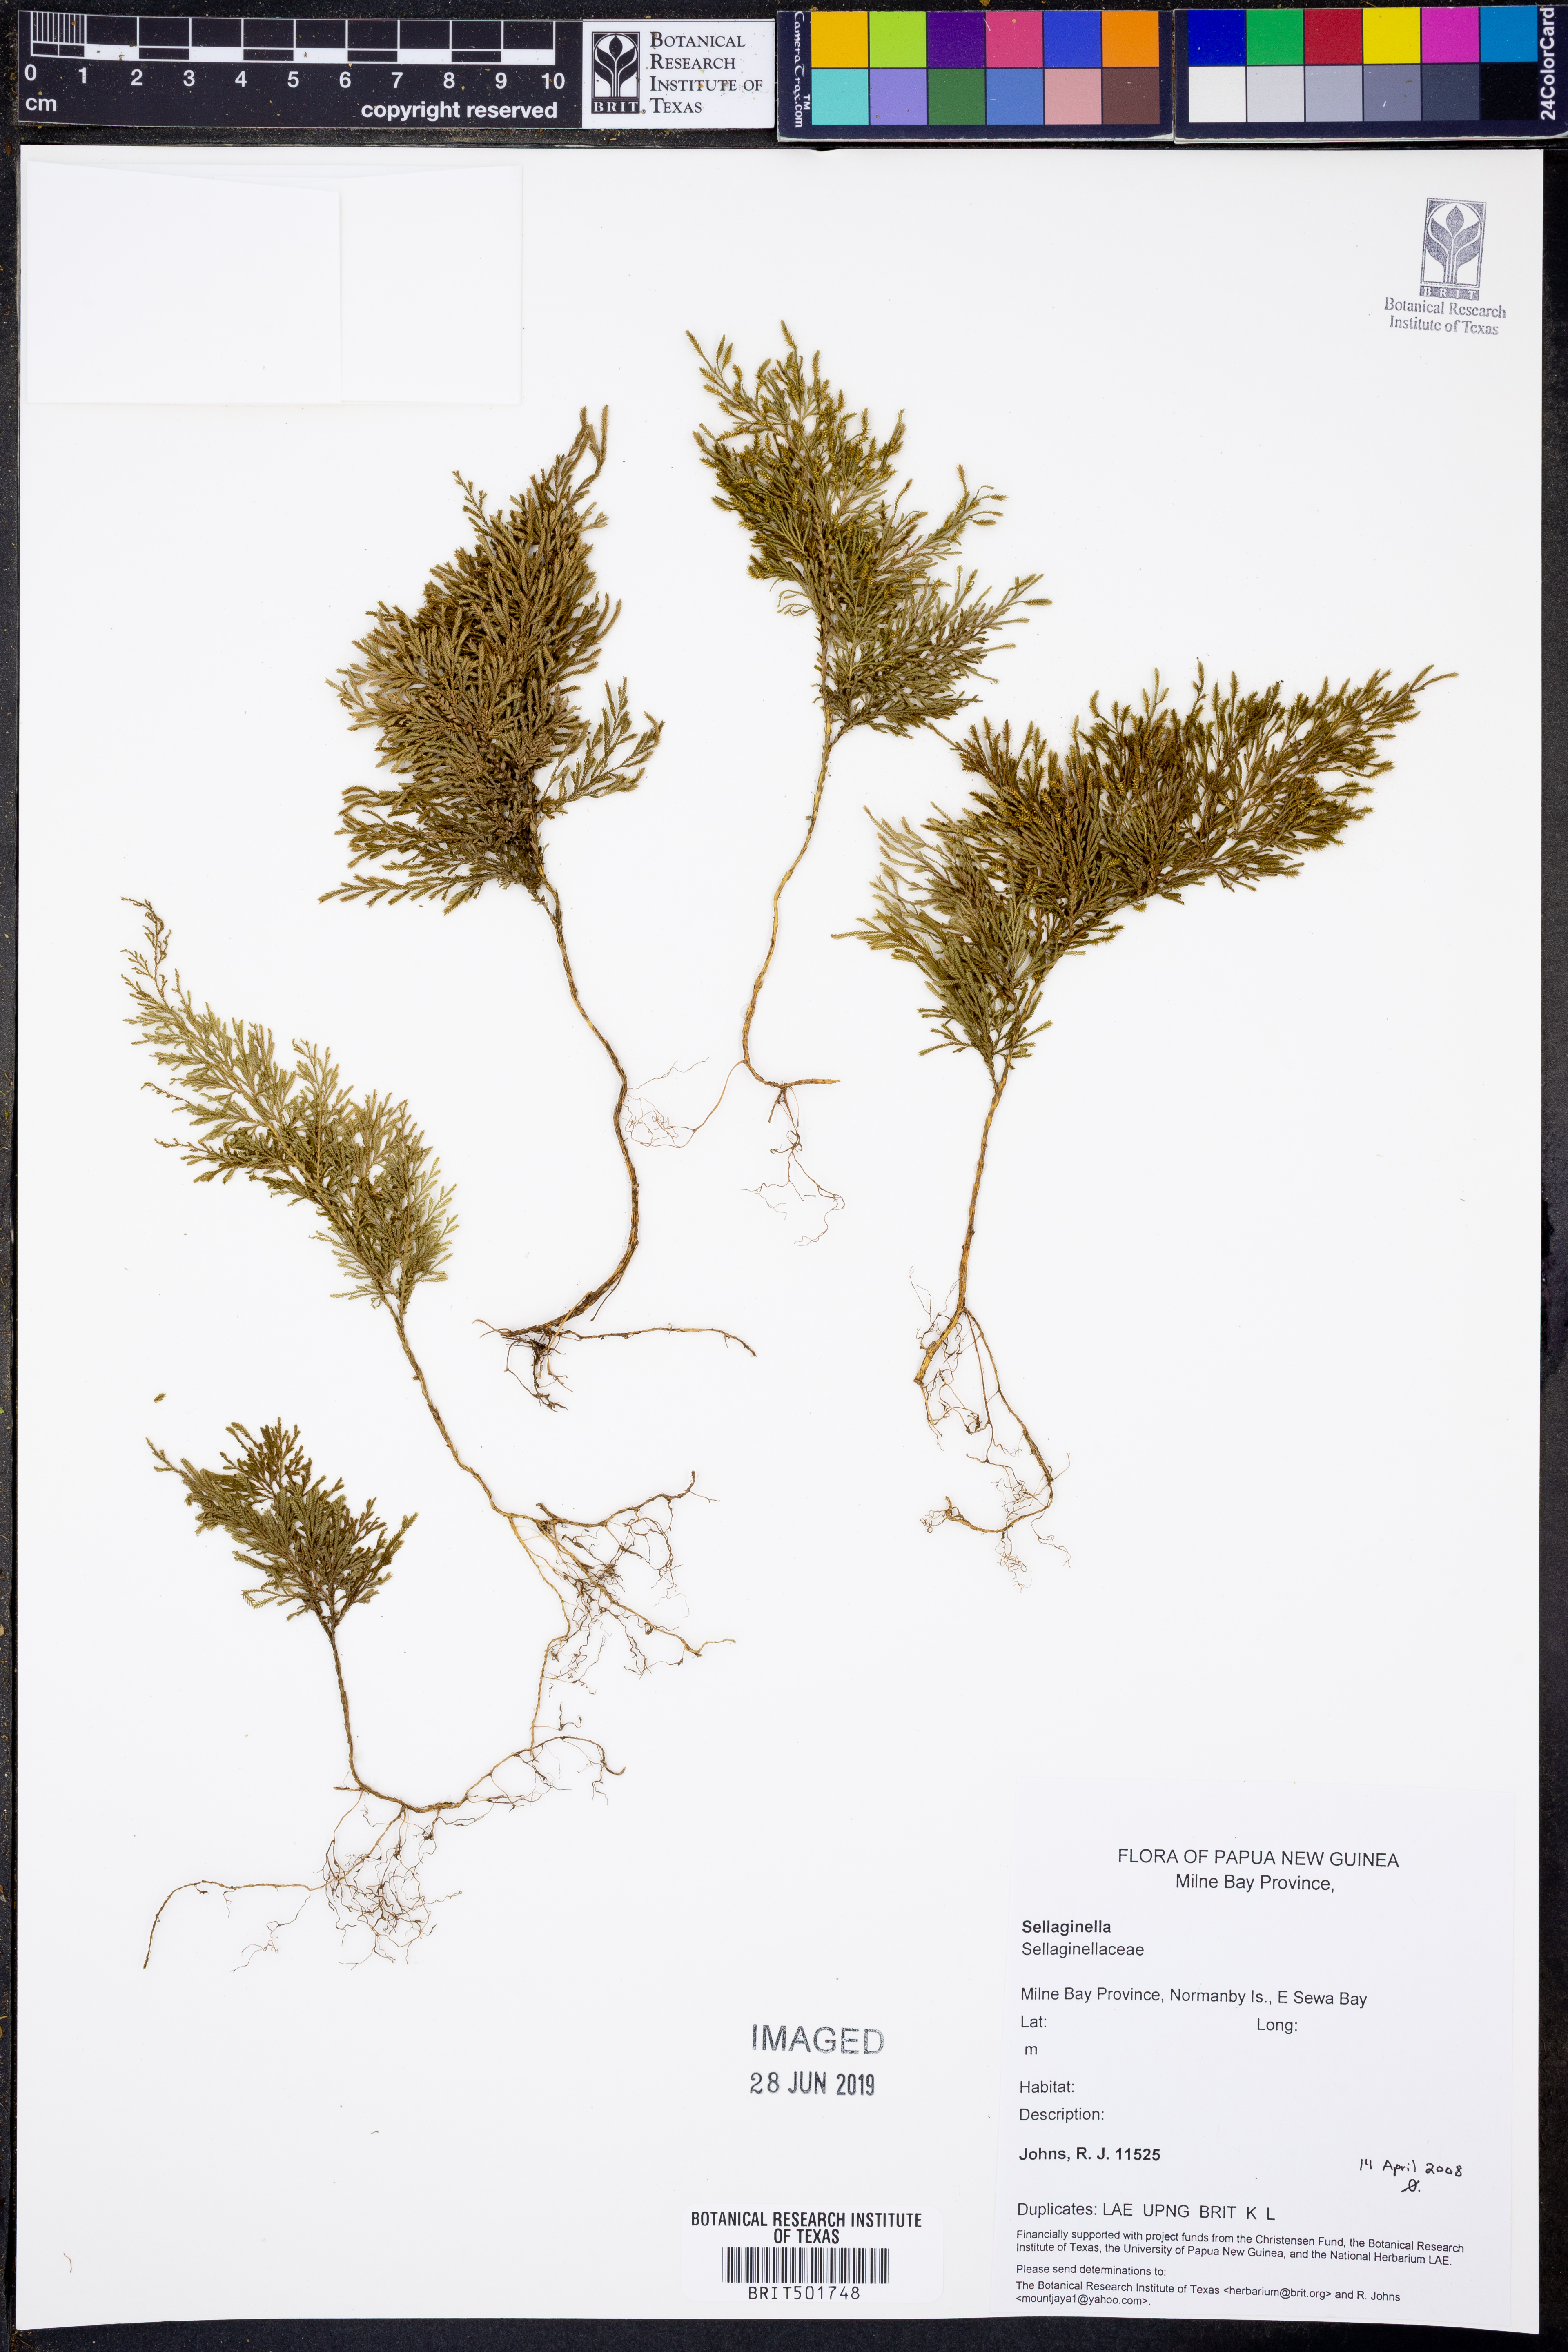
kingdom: Plantae
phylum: Tracheophyta
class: Lycopodiopsida
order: Selaginellales
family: Selaginellaceae
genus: Selaginella
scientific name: Selaginella
